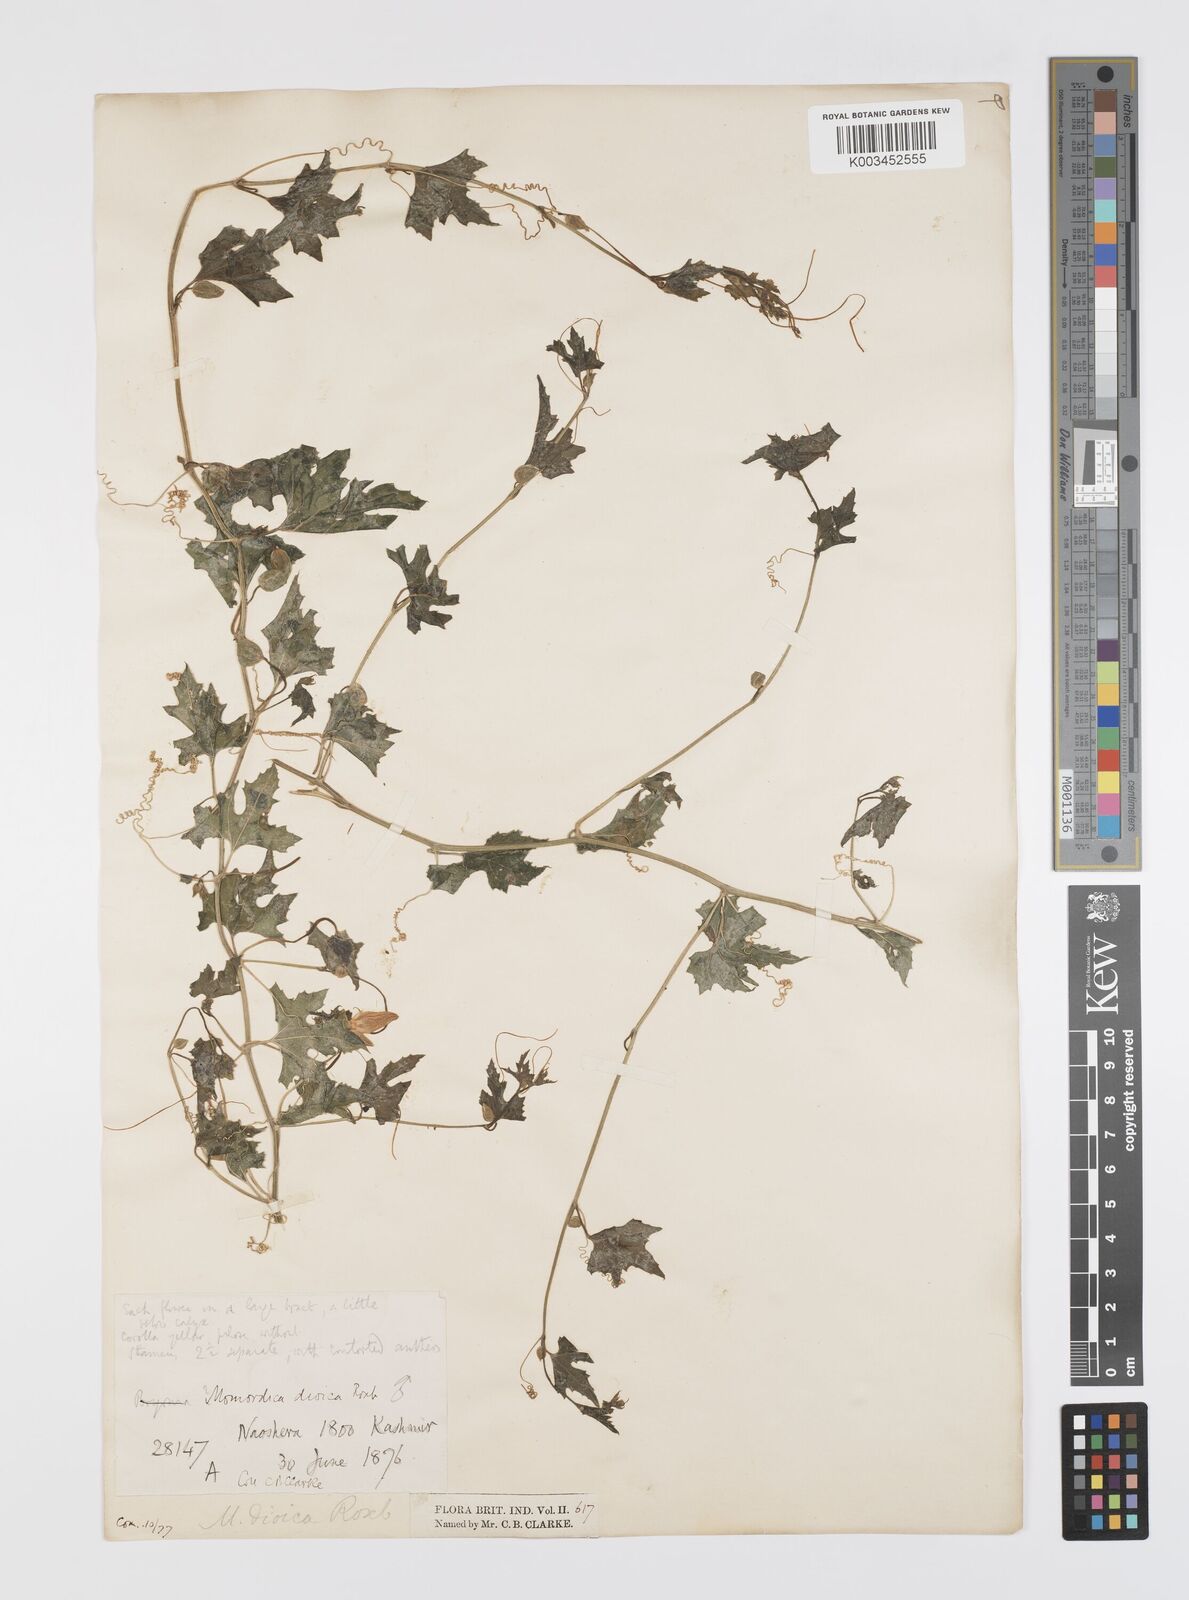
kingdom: Plantae
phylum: Tracheophyta
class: Magnoliopsida
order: Cucurbitales
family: Cucurbitaceae
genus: Momordica
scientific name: Momordica dioica
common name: Spine gourd
